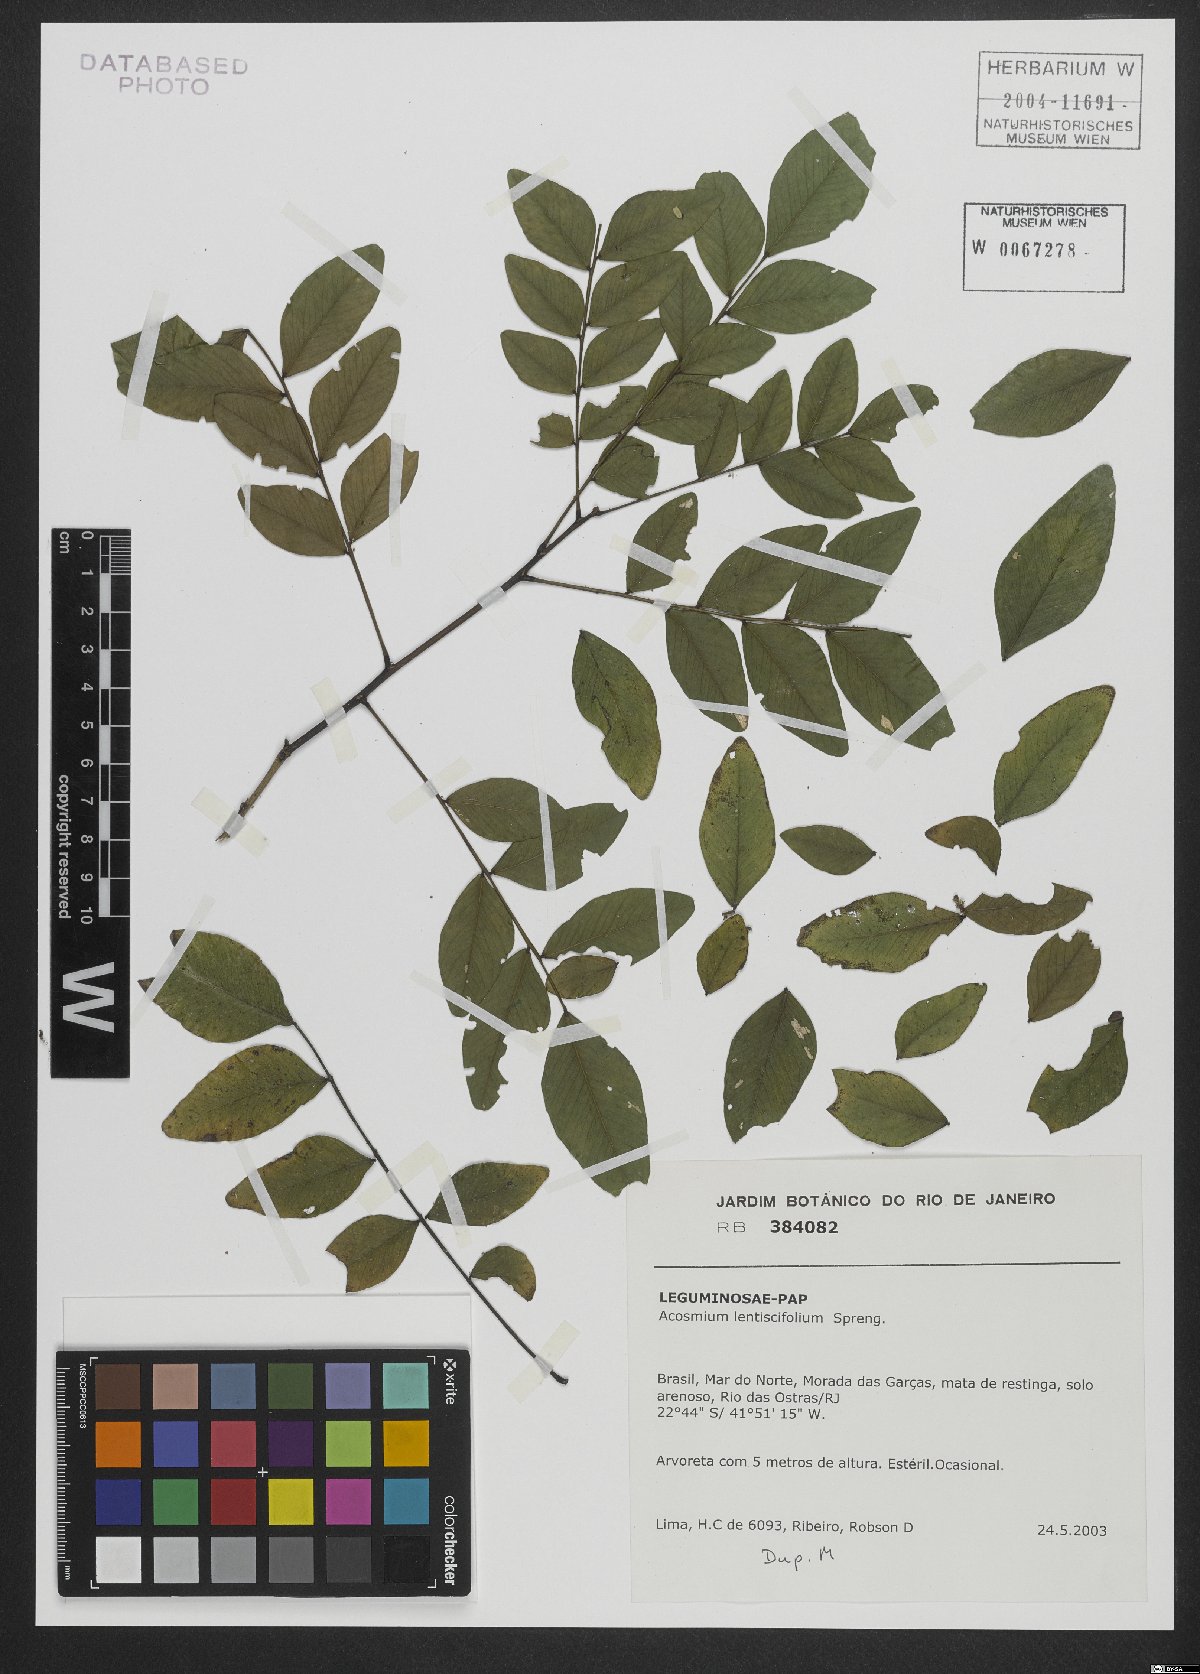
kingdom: Plantae
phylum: Tracheophyta
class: Magnoliopsida
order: Fabales
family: Fabaceae
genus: Acosmium
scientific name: Acosmium lentiscifolium
